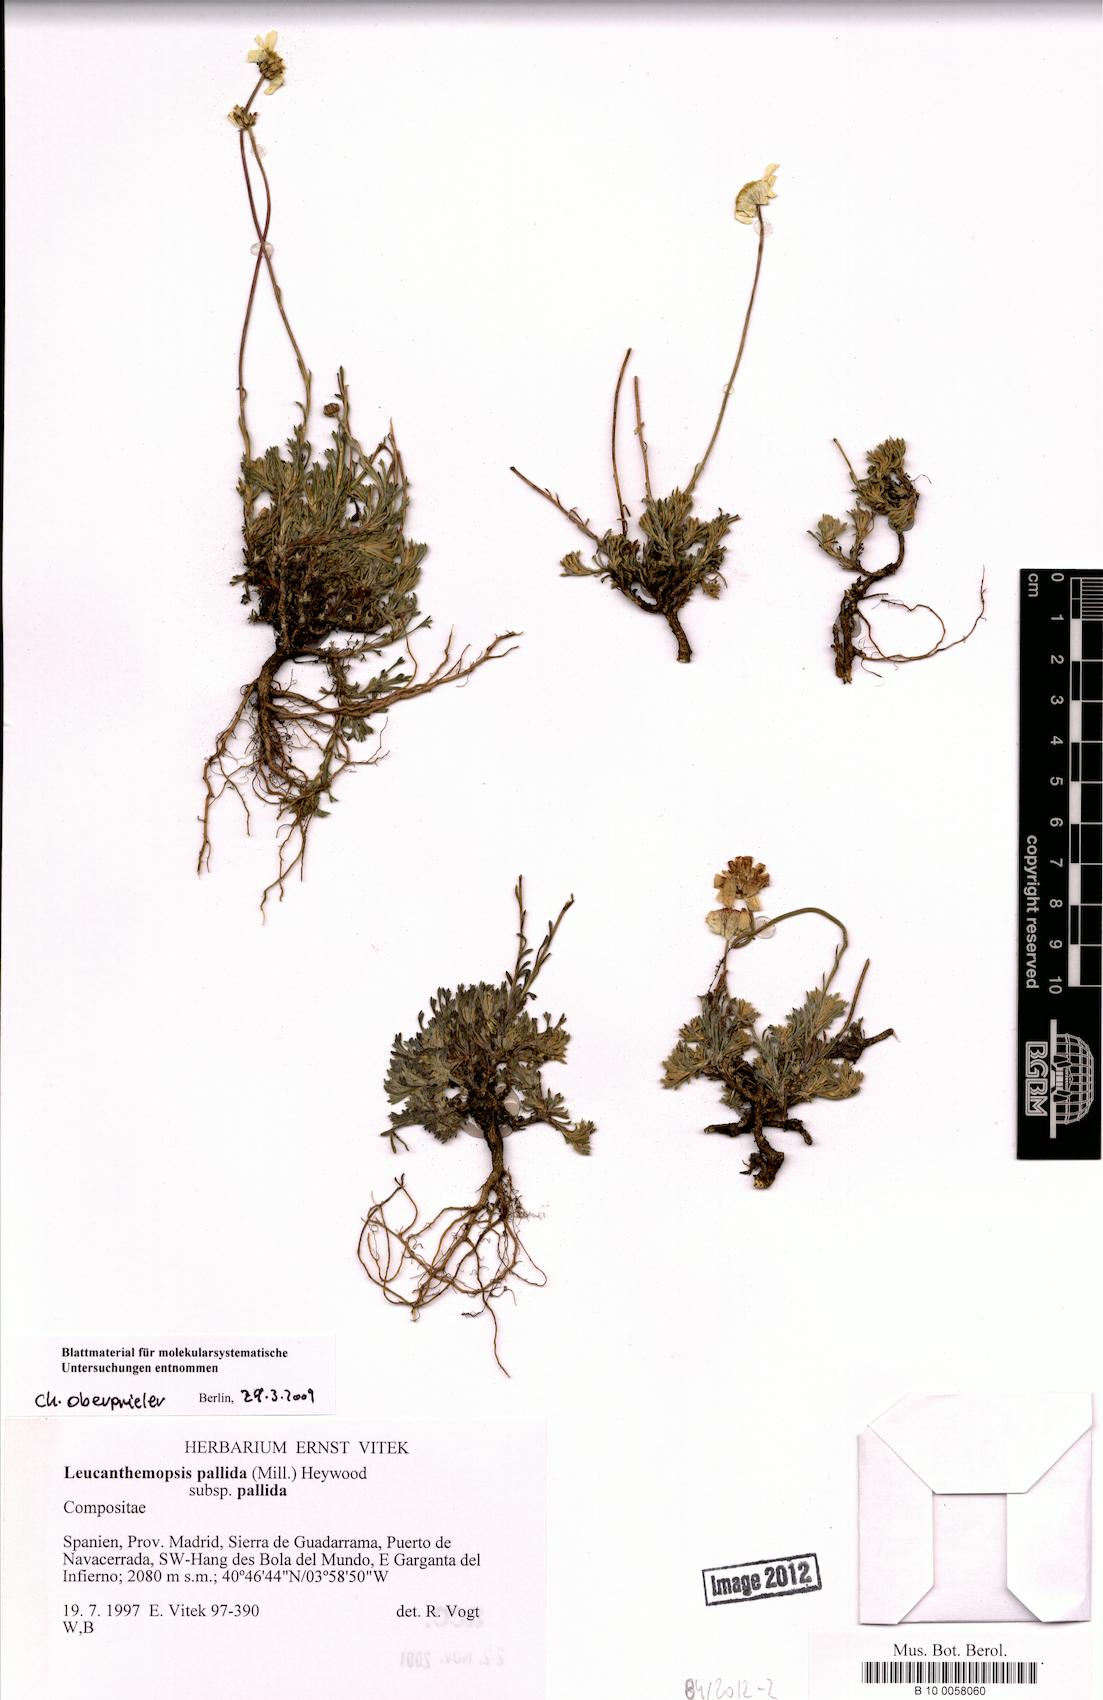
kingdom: Plantae
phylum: Tracheophyta
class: Magnoliopsida
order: Asterales
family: Asteraceae
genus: Leucanthemopsis
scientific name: Leucanthemopsis pallida
